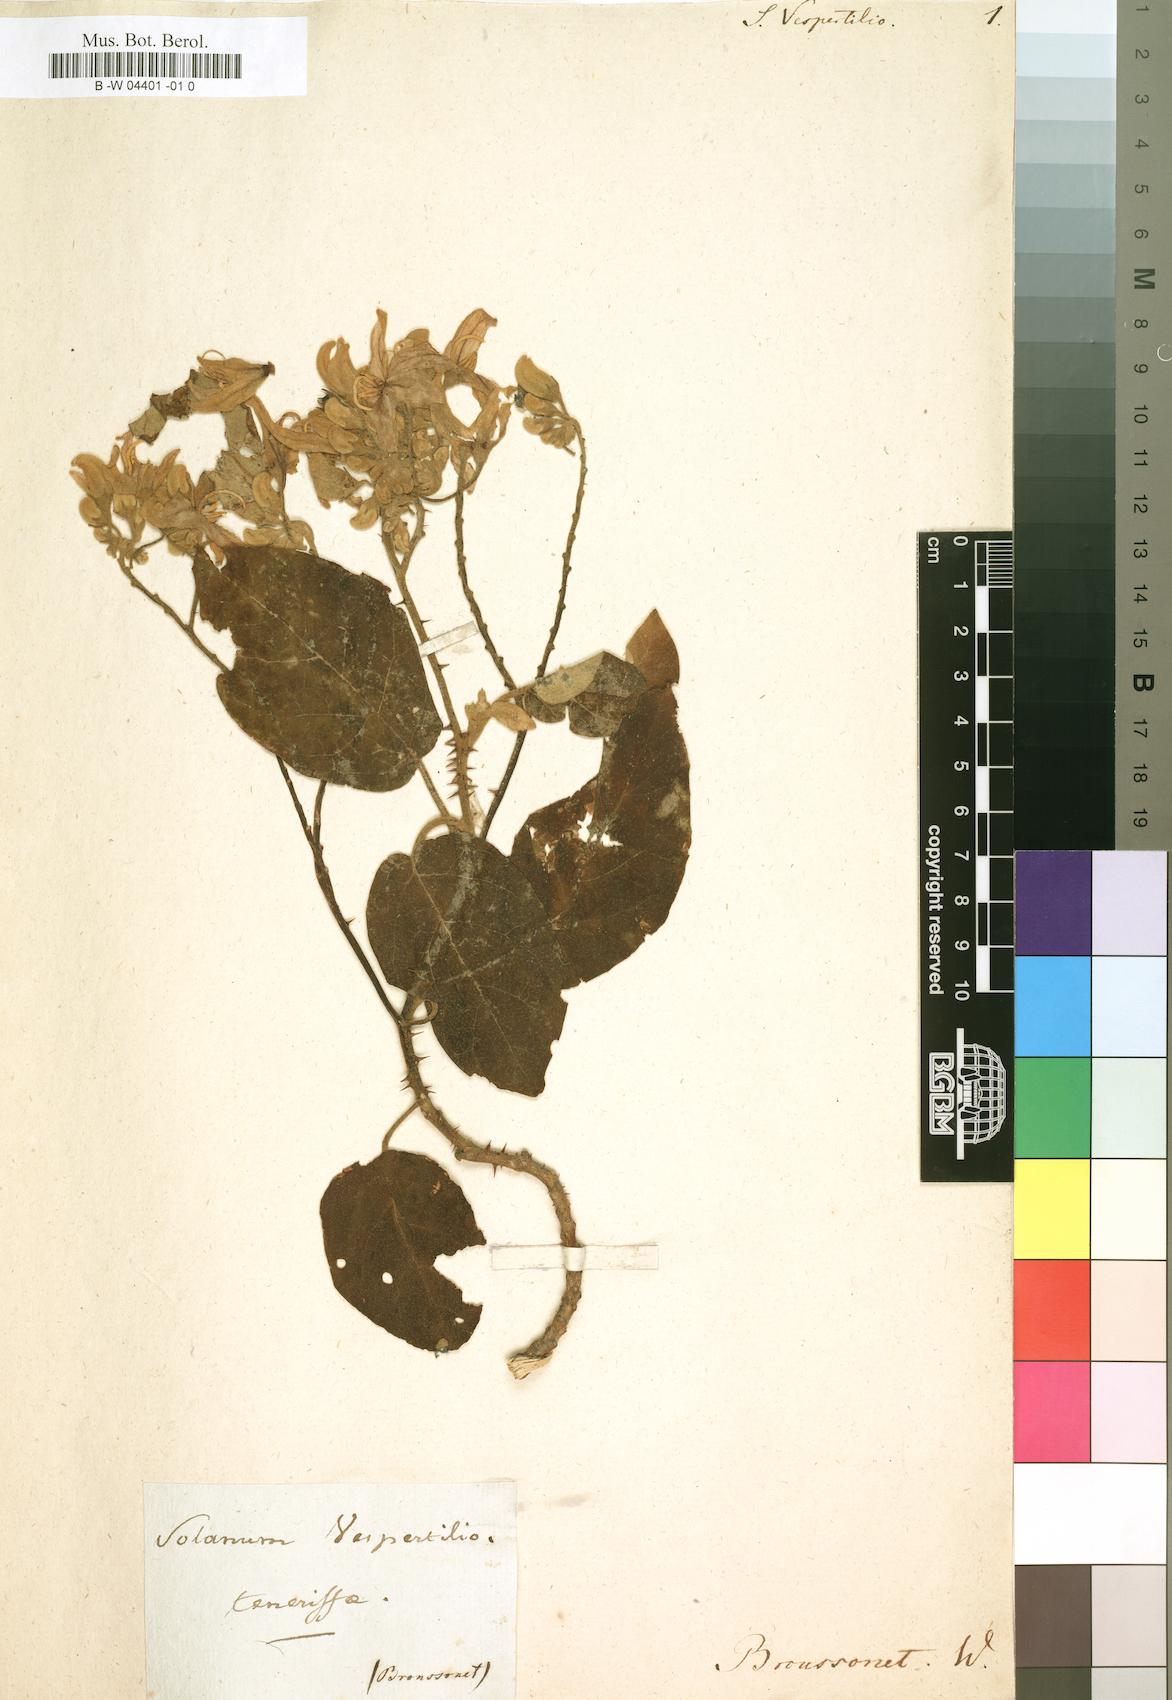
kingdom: Plantae
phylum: Tracheophyta
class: Magnoliopsida
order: Solanales
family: Solanaceae
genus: Solanum
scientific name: Solanum vespertilio
